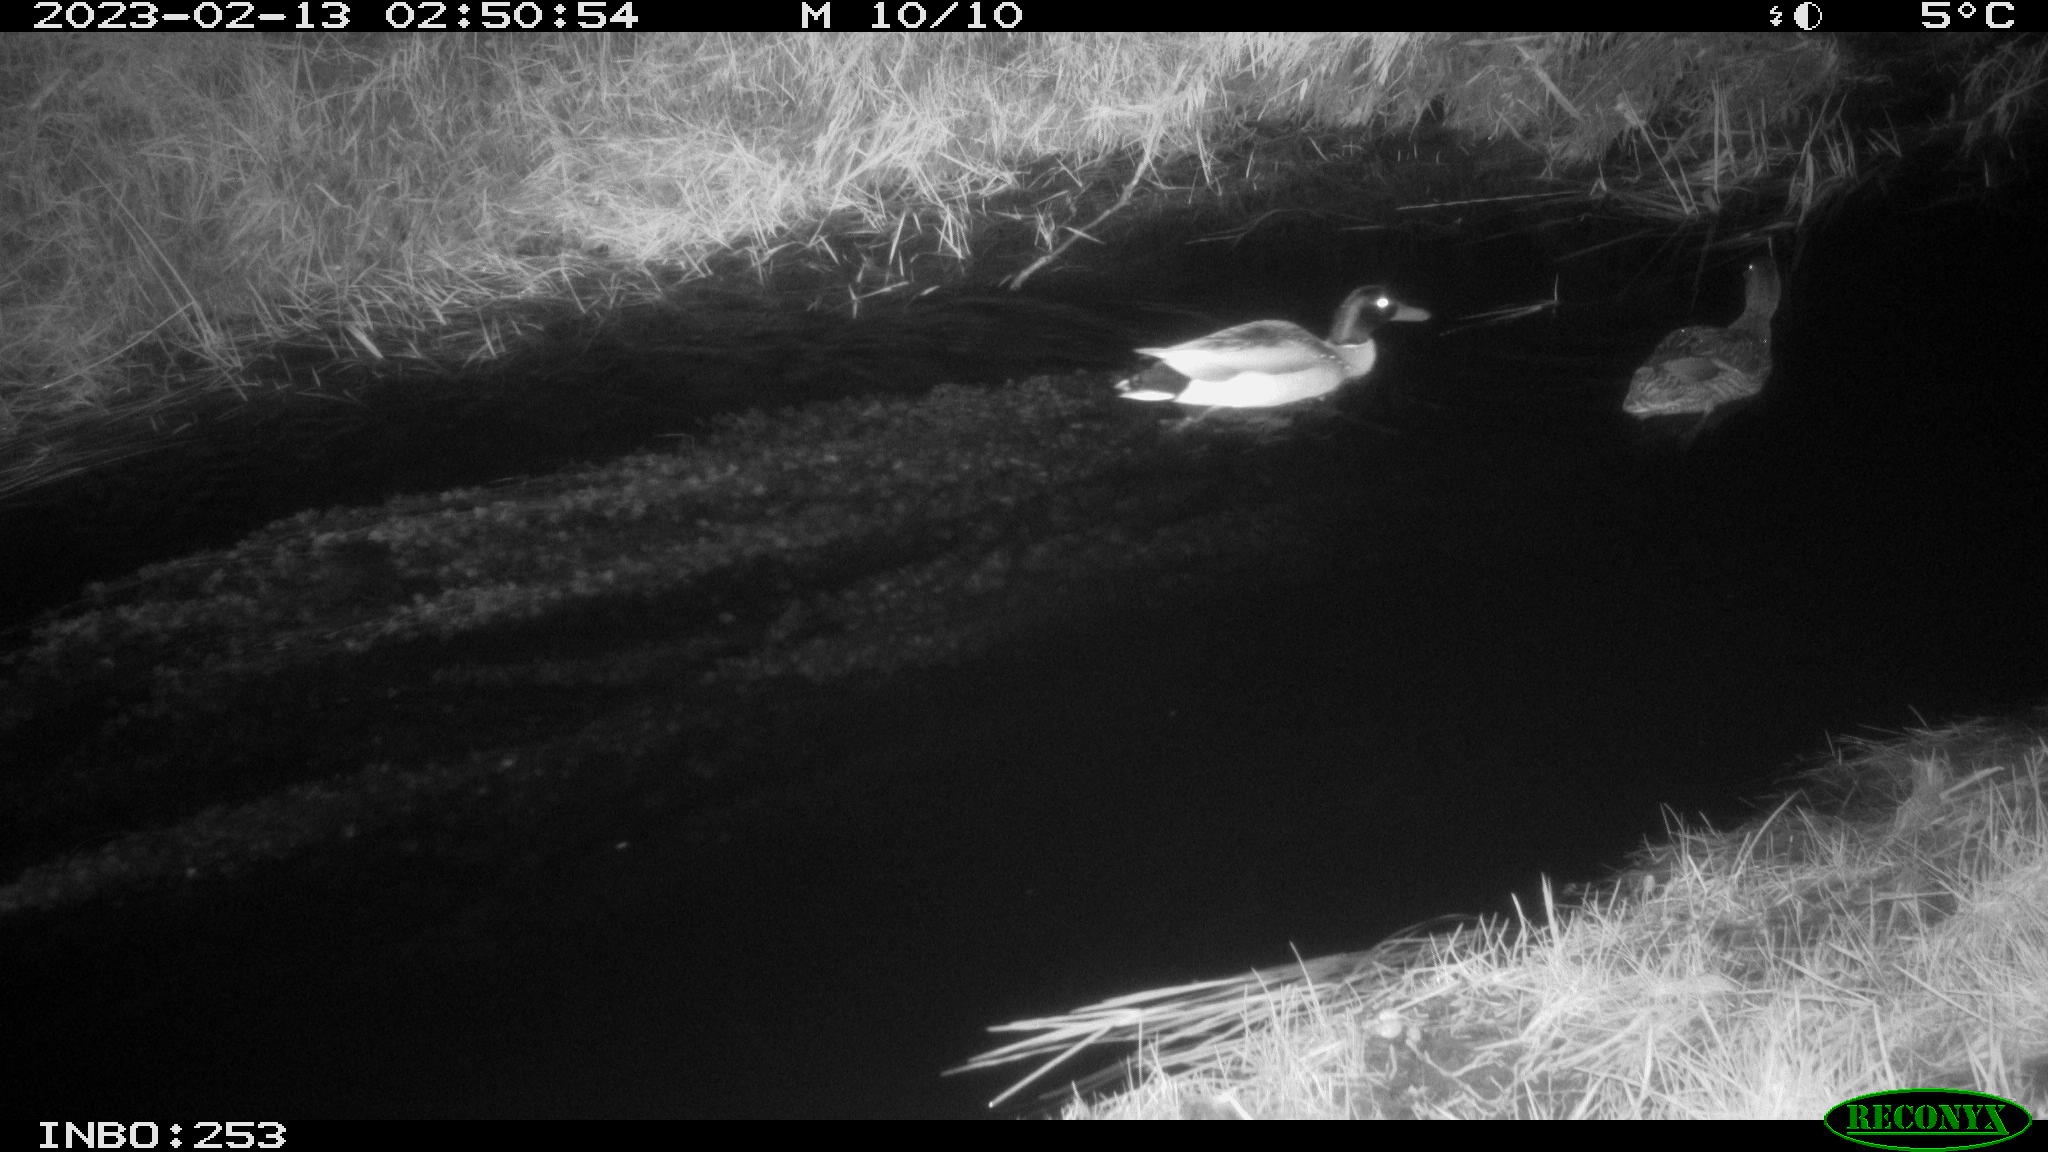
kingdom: Animalia
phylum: Chordata
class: Aves
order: Anseriformes
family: Anatidae
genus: Anas
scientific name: Anas
